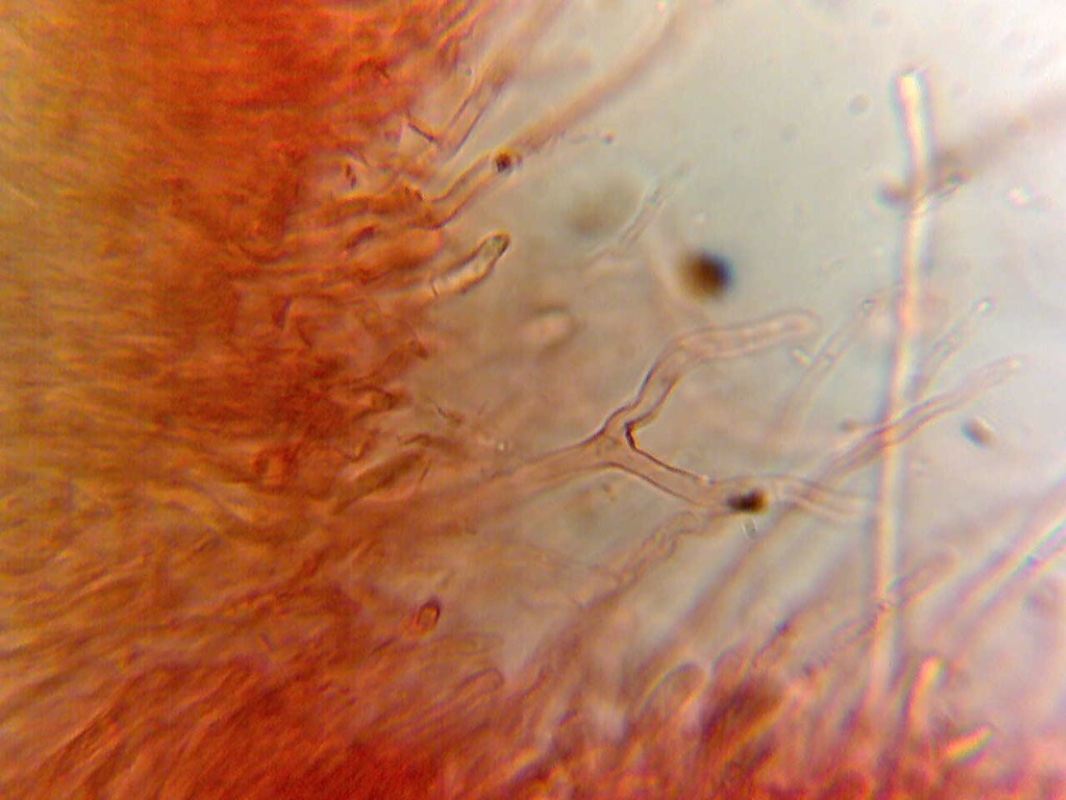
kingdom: Fungi
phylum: Basidiomycota
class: Dacrymycetes
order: Dacrymycetales
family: Dacrymycetaceae
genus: Dacrymyces
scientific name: Dacrymyces lacrymalis
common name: rynket tåresvamp
